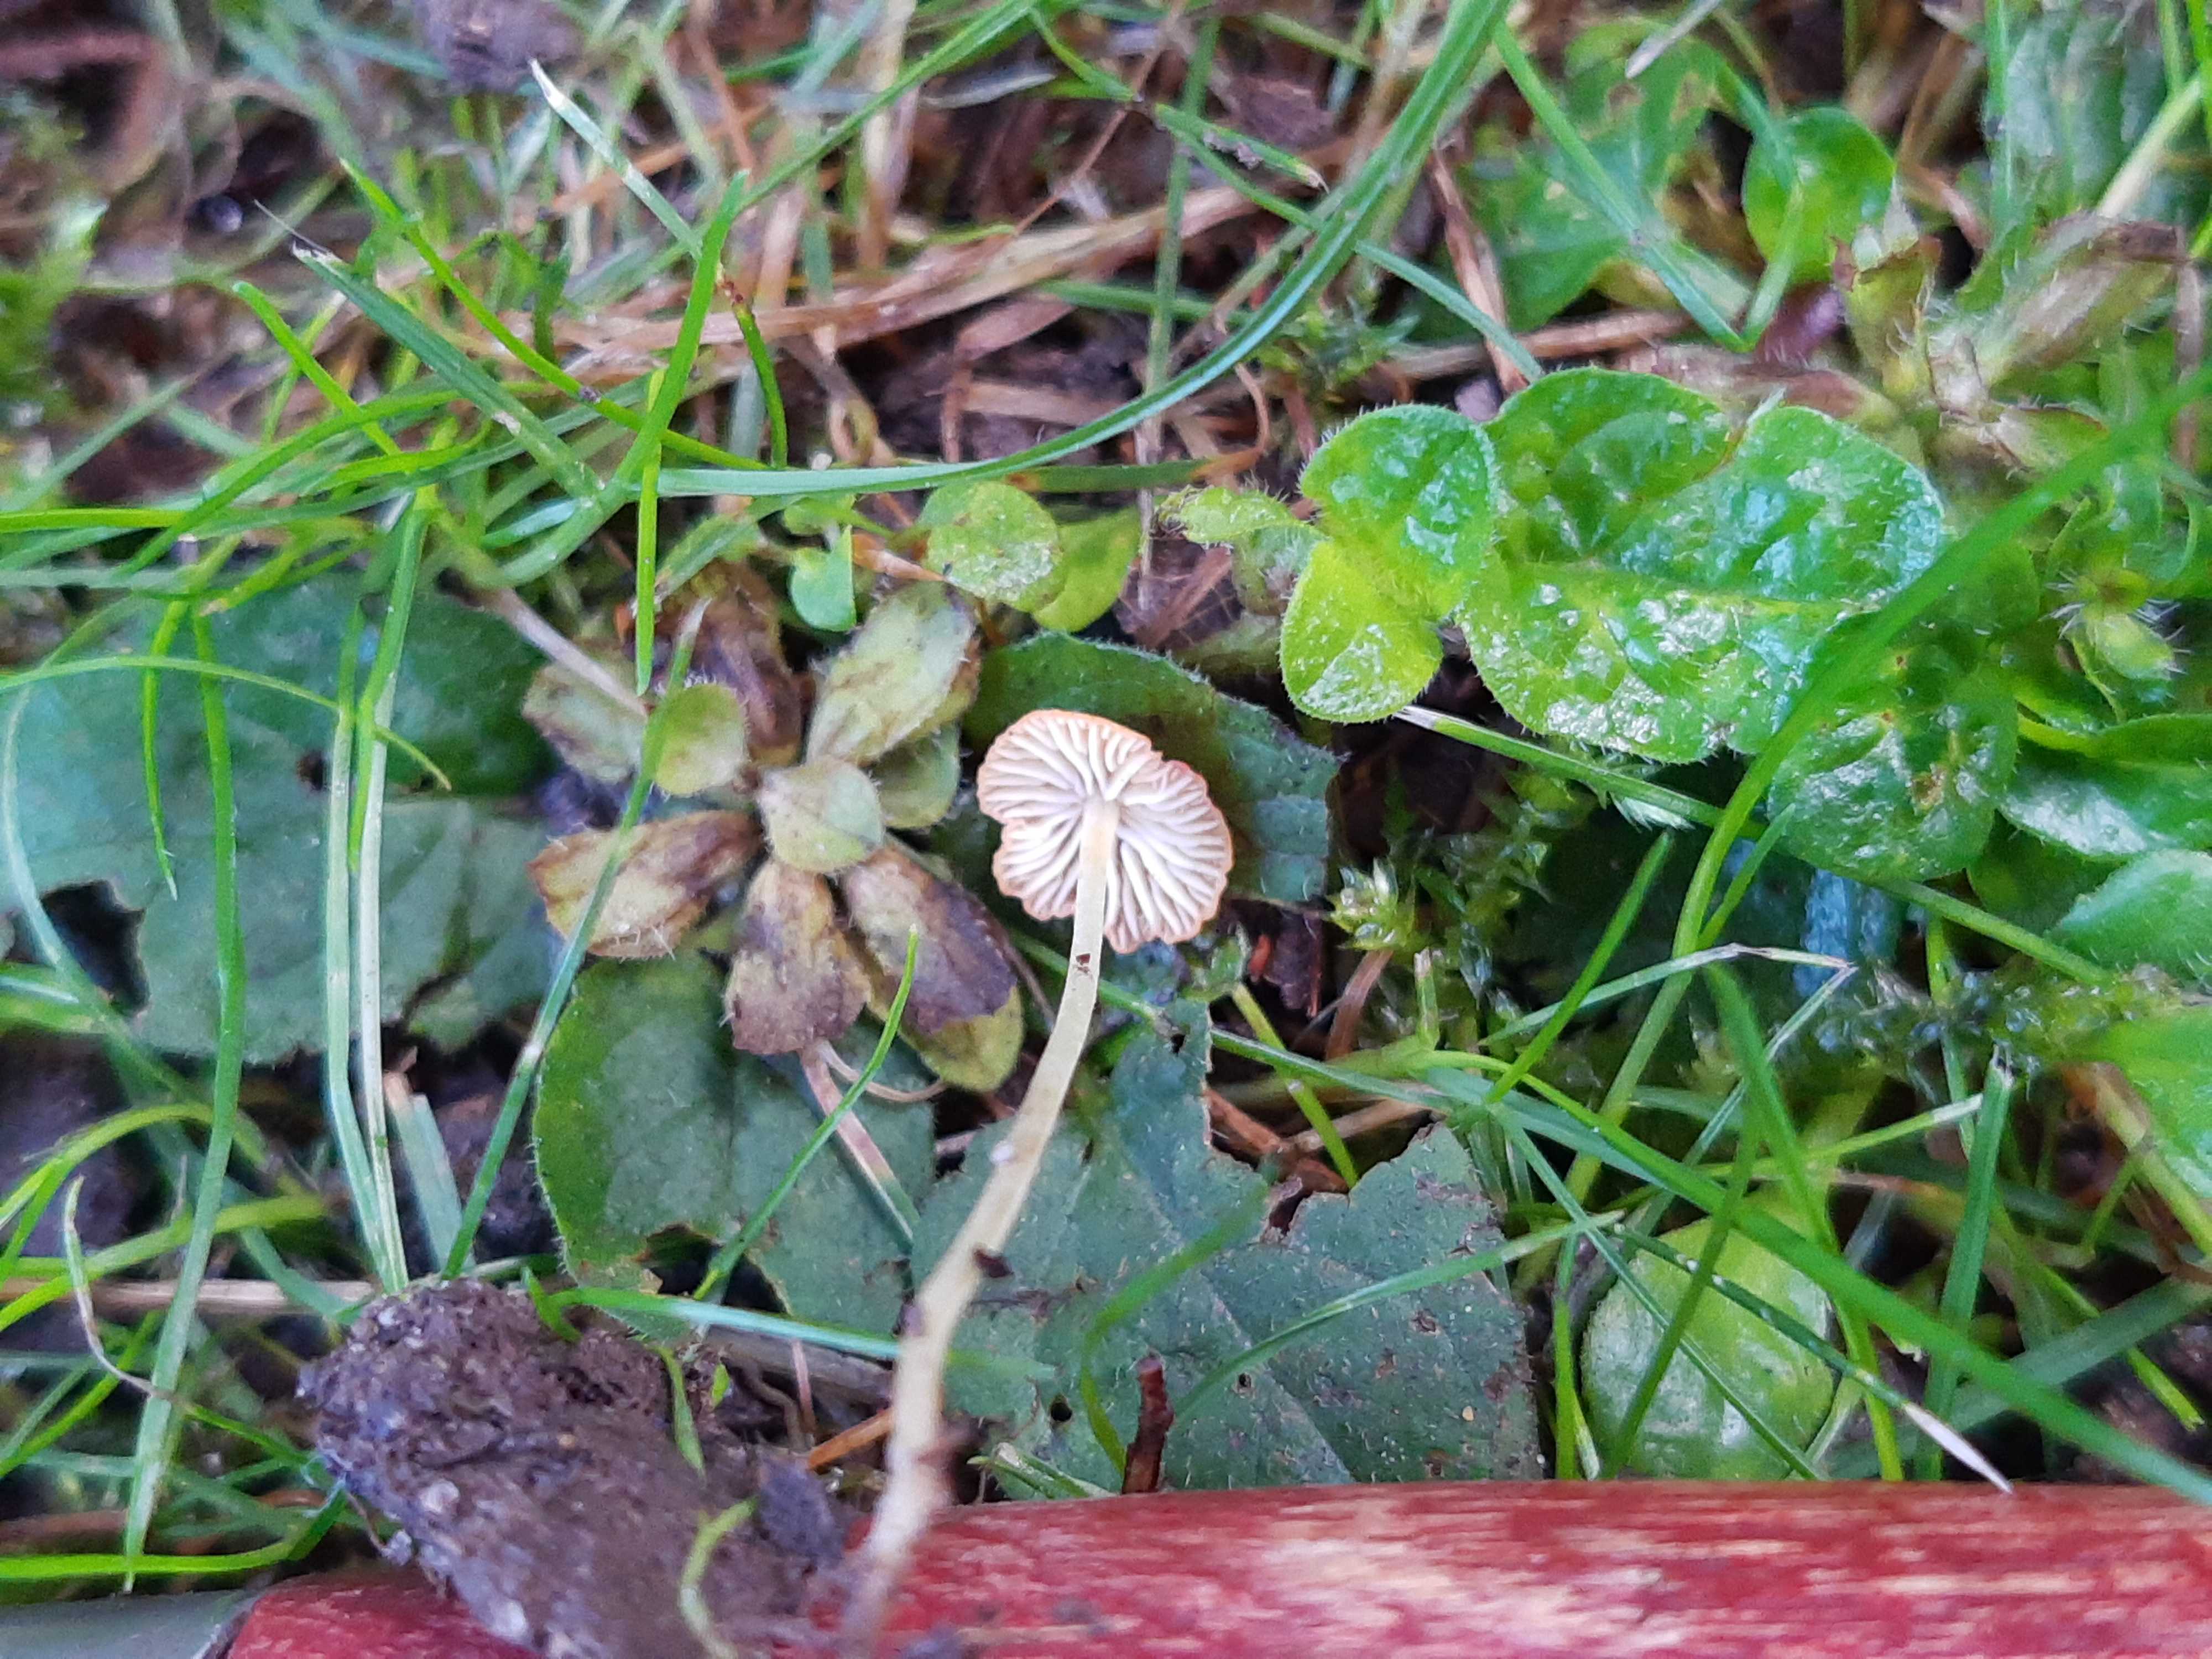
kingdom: Fungi
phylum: Basidiomycota
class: Agaricomycetes
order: Agaricales
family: Mycenaceae
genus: Mycena
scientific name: Mycena acicula
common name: orange huesvamp
